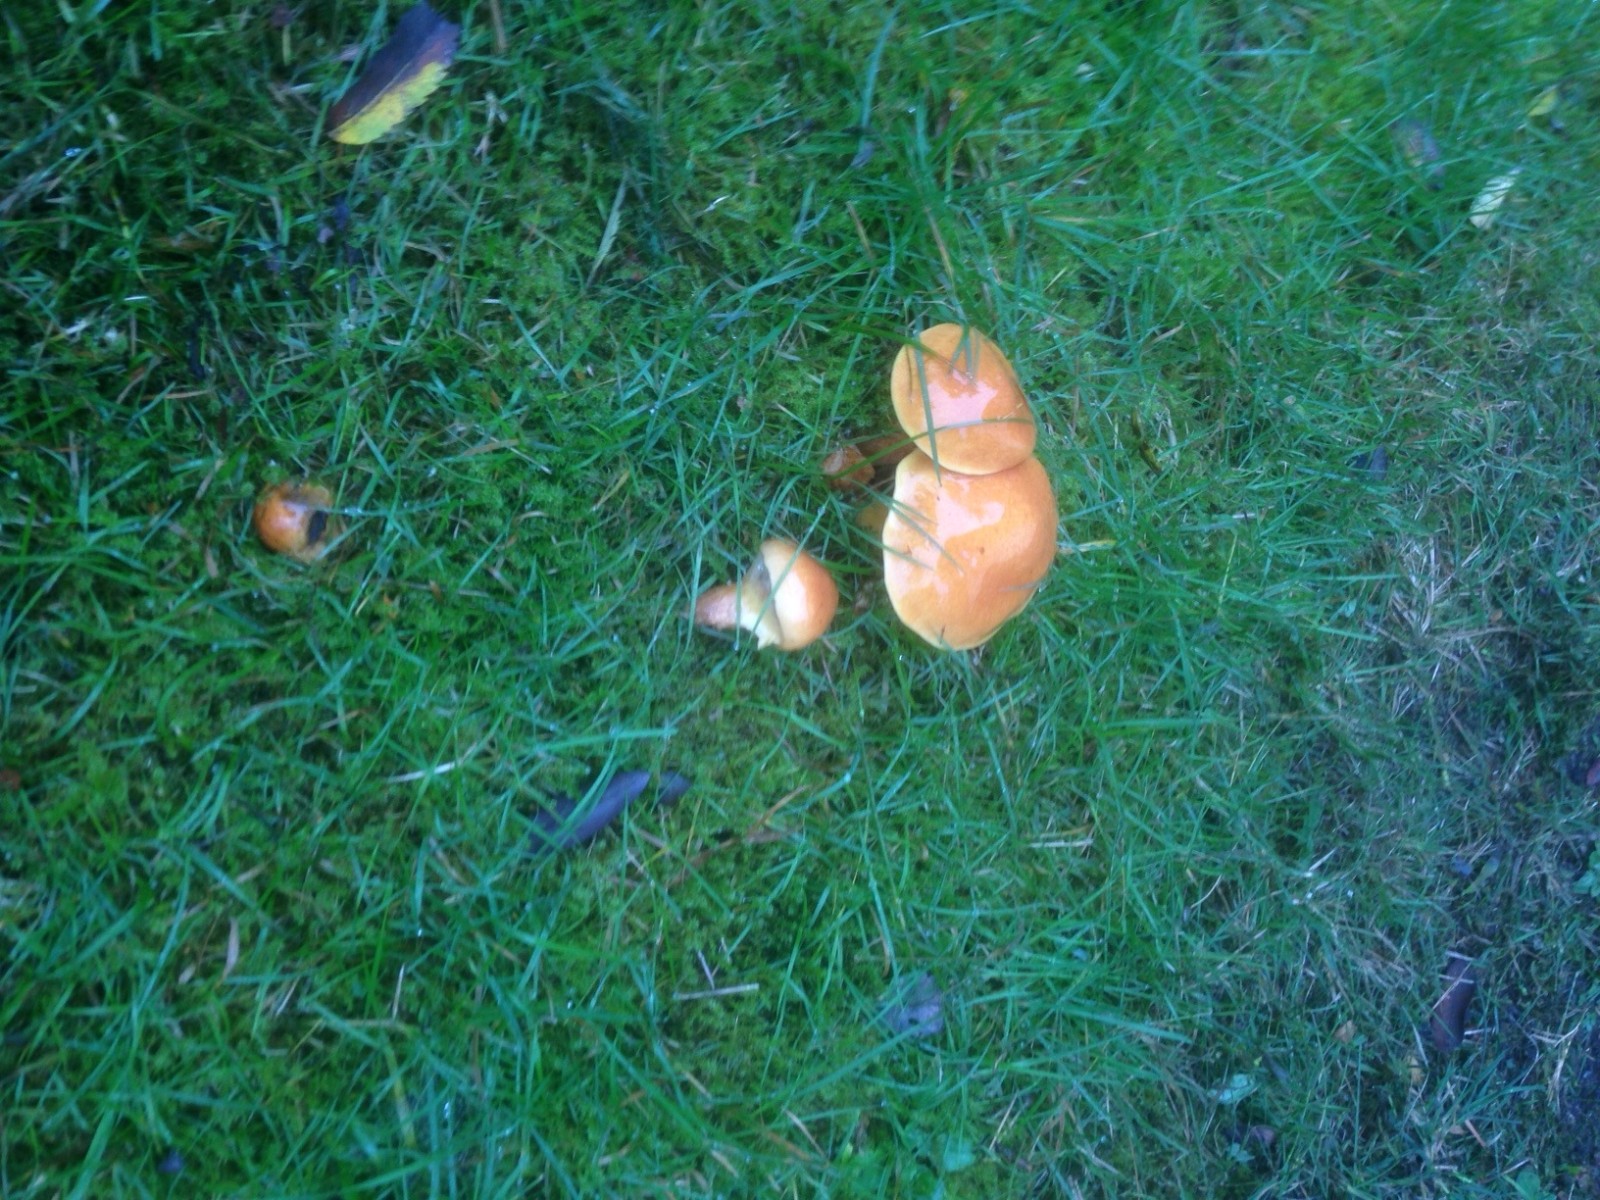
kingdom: Fungi
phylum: Basidiomycota
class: Agaricomycetes
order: Boletales
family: Suillaceae
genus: Suillus
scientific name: Suillus grevillei
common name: lærke-slimrørhat
